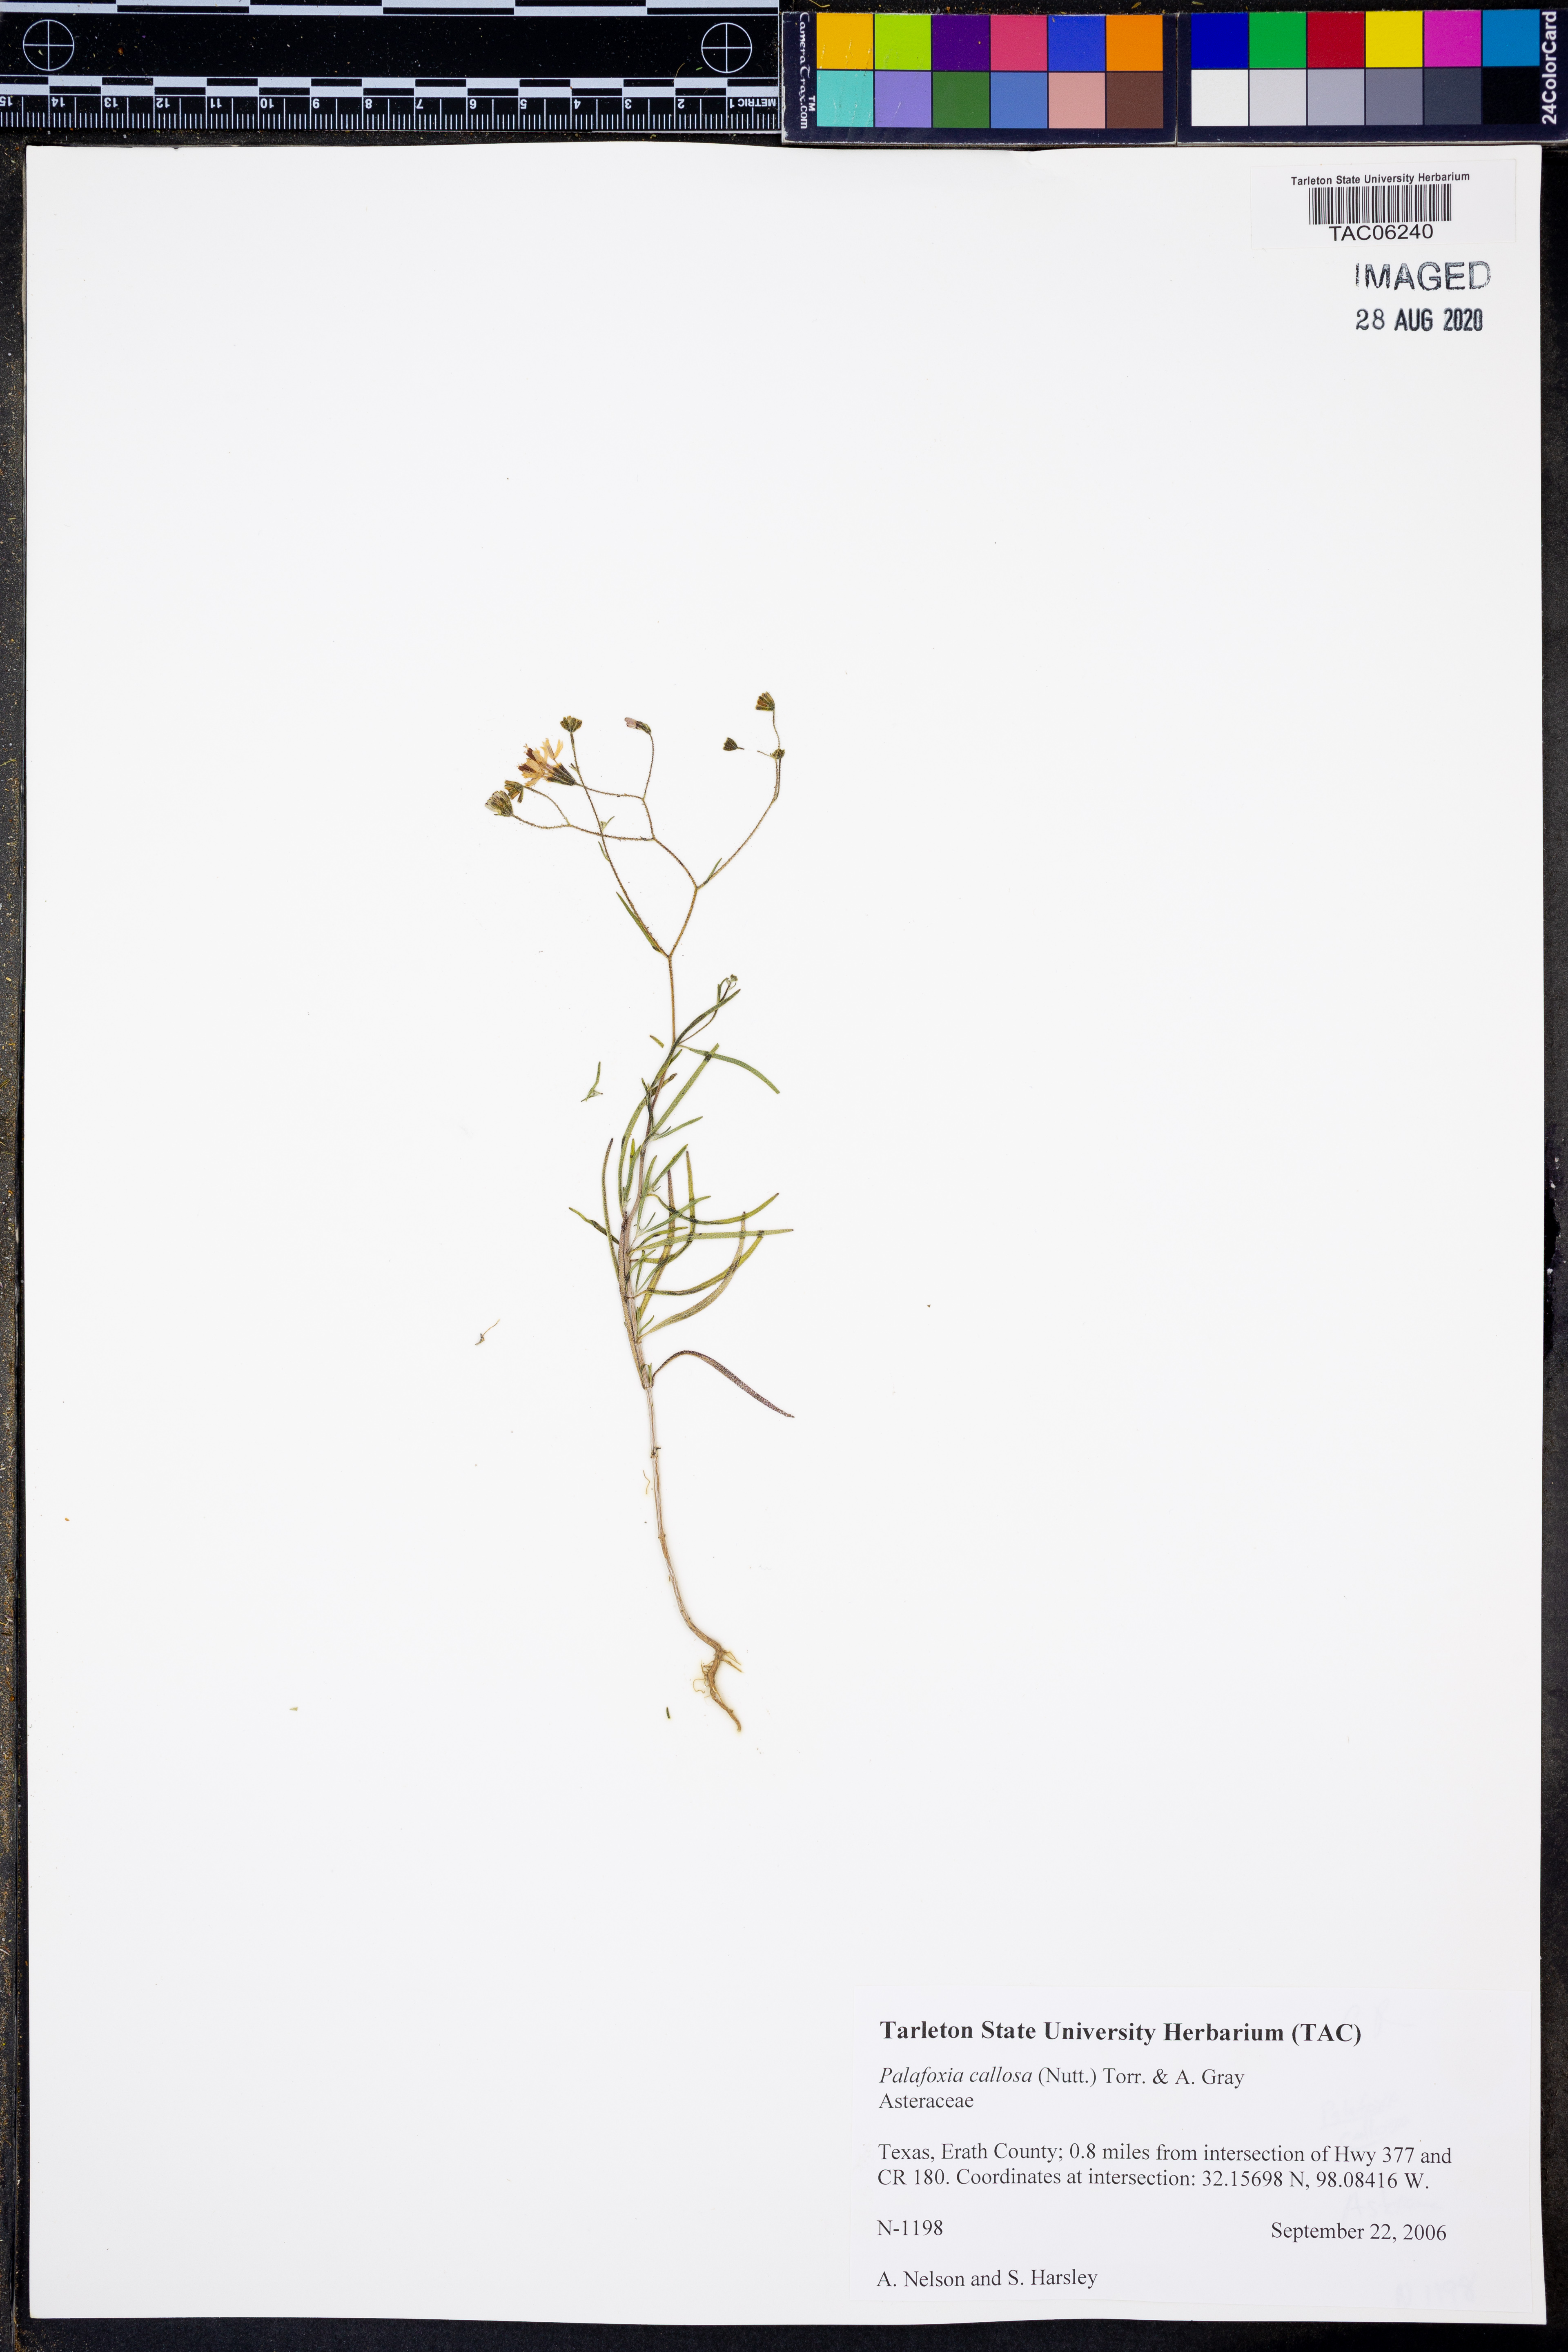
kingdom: Plantae
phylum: Tracheophyta
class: Magnoliopsida
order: Asterales
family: Asteraceae
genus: Palafoxia
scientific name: Palafoxia callosa
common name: Small palafox
